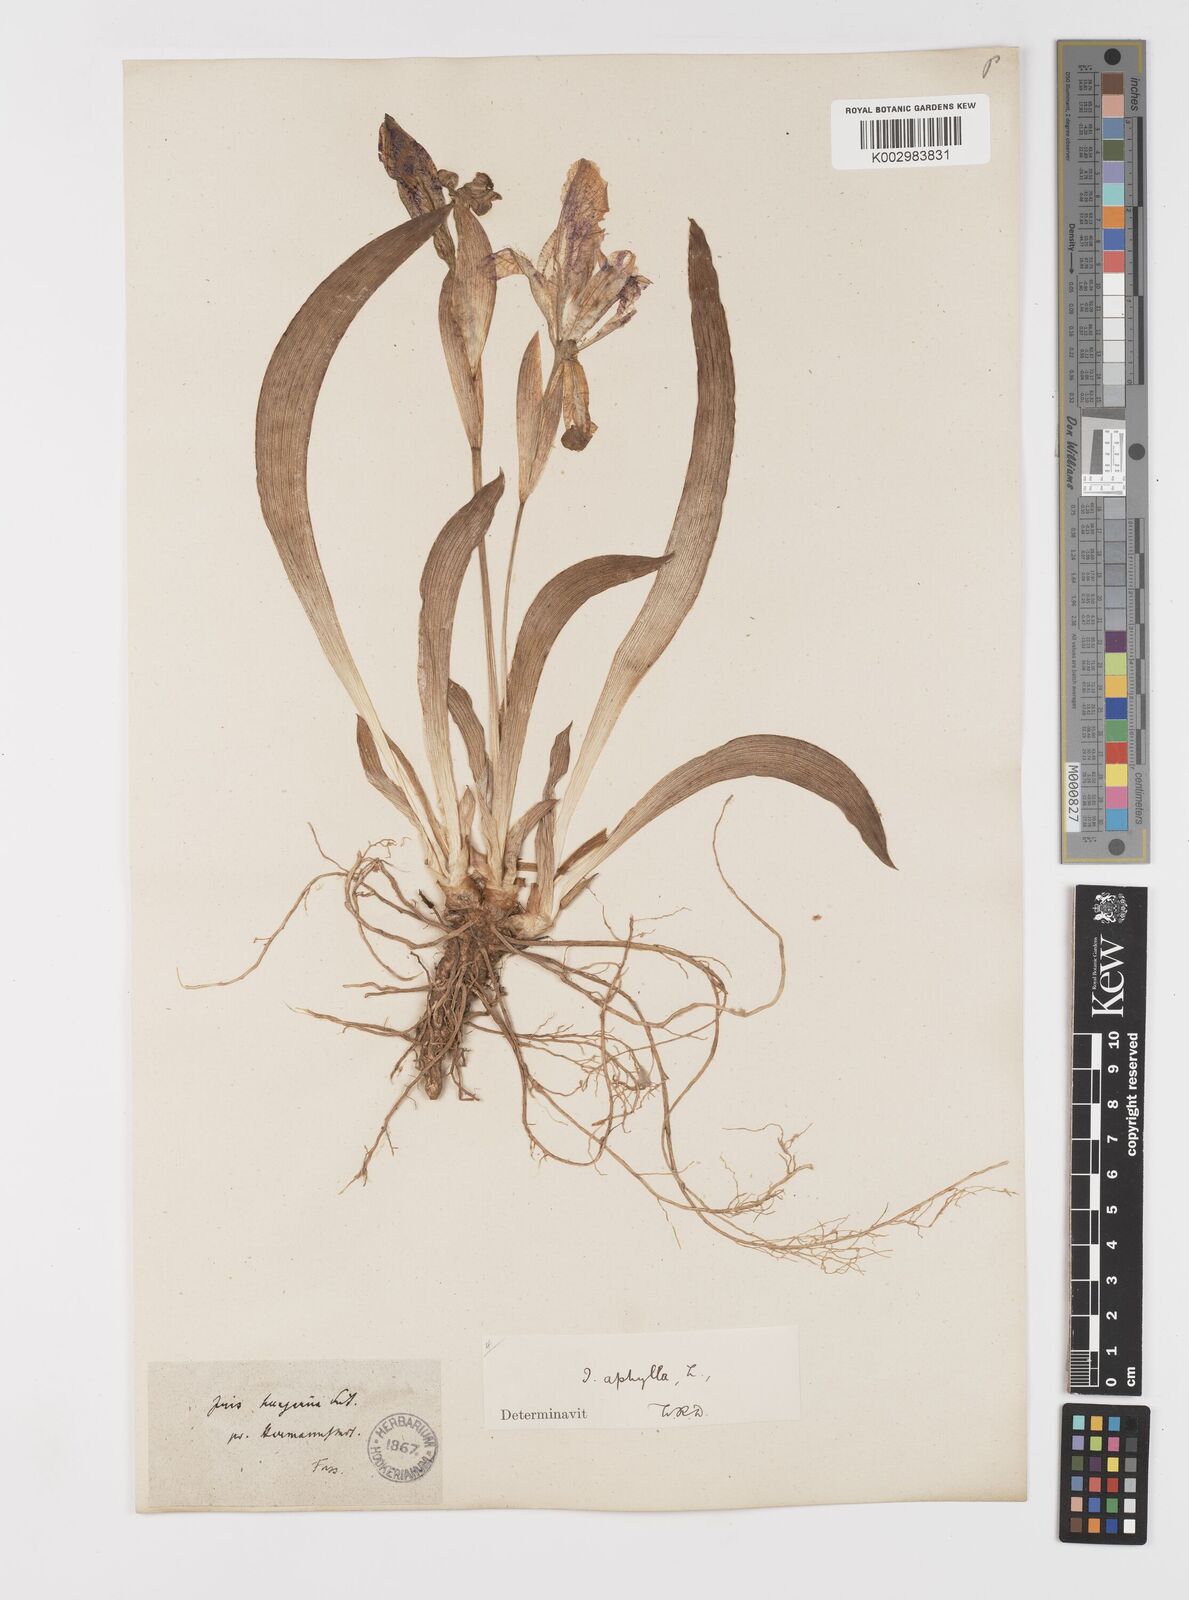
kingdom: Plantae
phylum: Tracheophyta
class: Liliopsida
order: Asparagales
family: Iridaceae
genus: Iris
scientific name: Iris aphylla
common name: Stool iris
